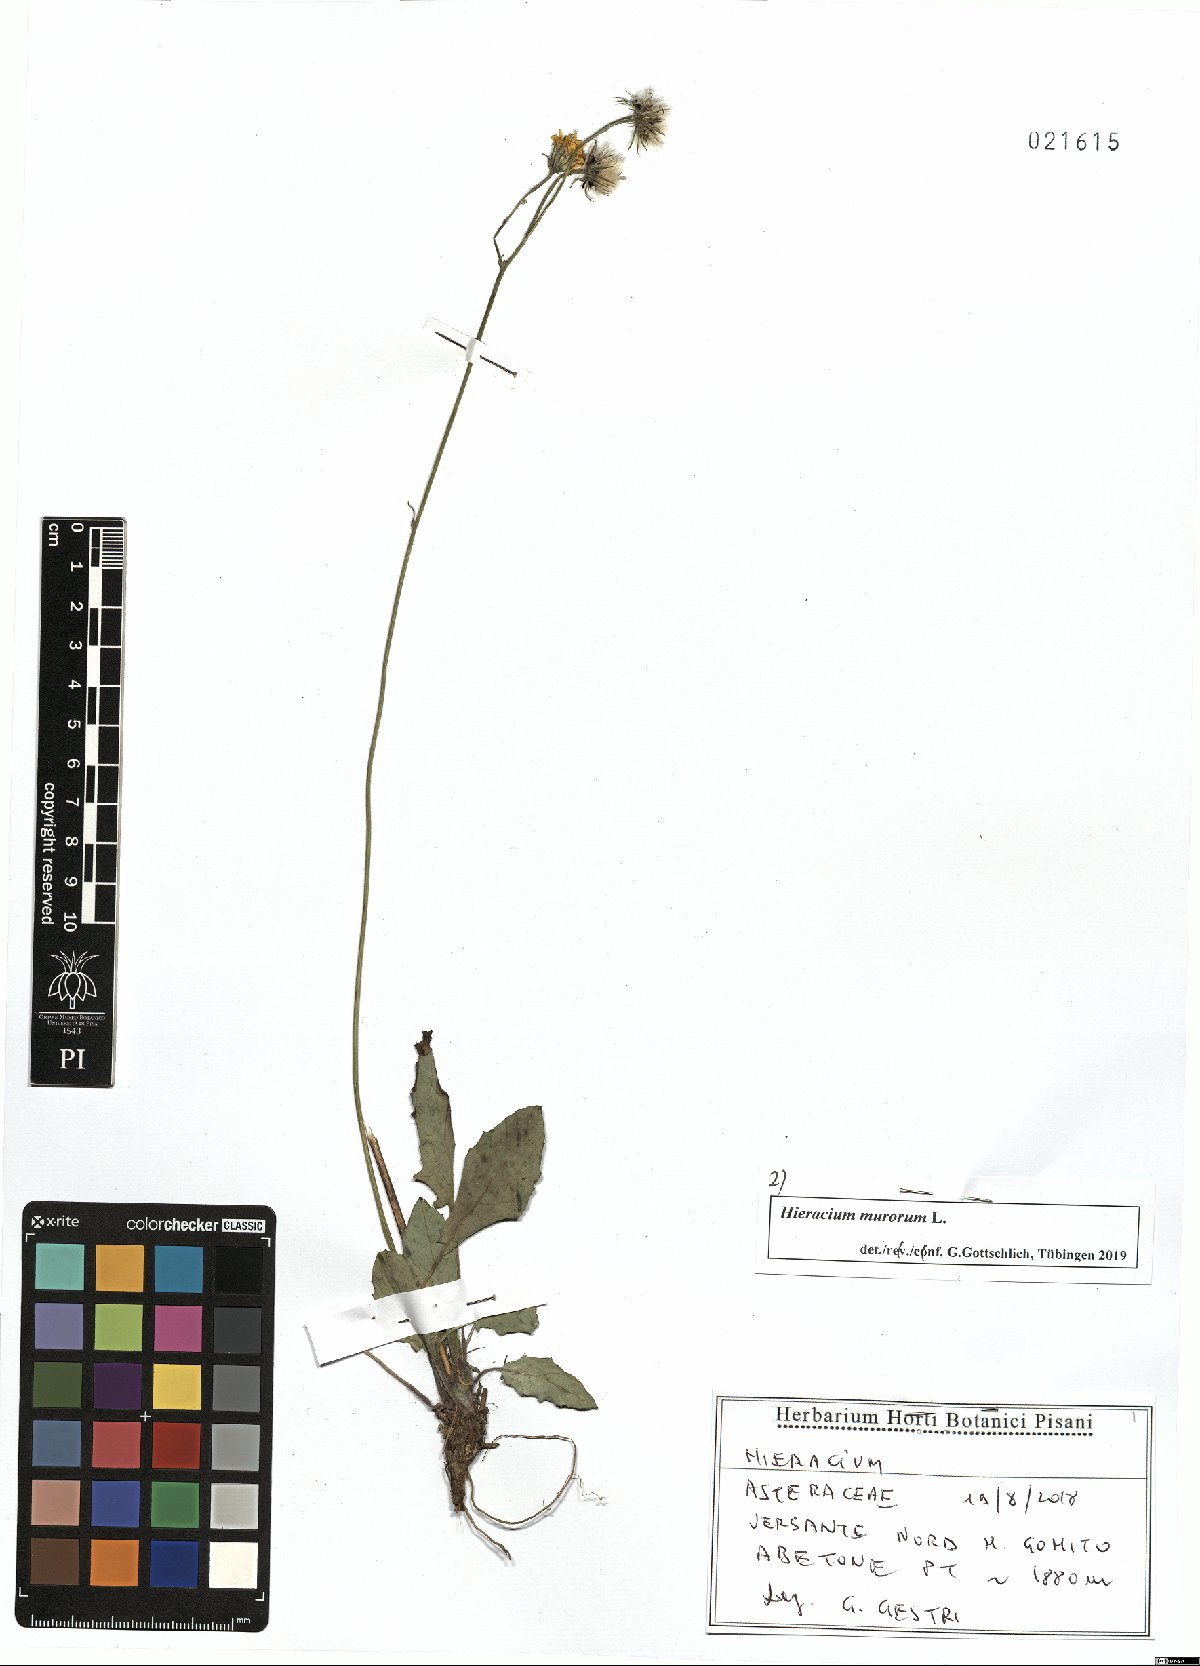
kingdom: Plantae
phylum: Tracheophyta
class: Magnoliopsida
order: Asterales
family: Asteraceae
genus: Hieracium
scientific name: Hieracium murorum
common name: Wall hawkweed
